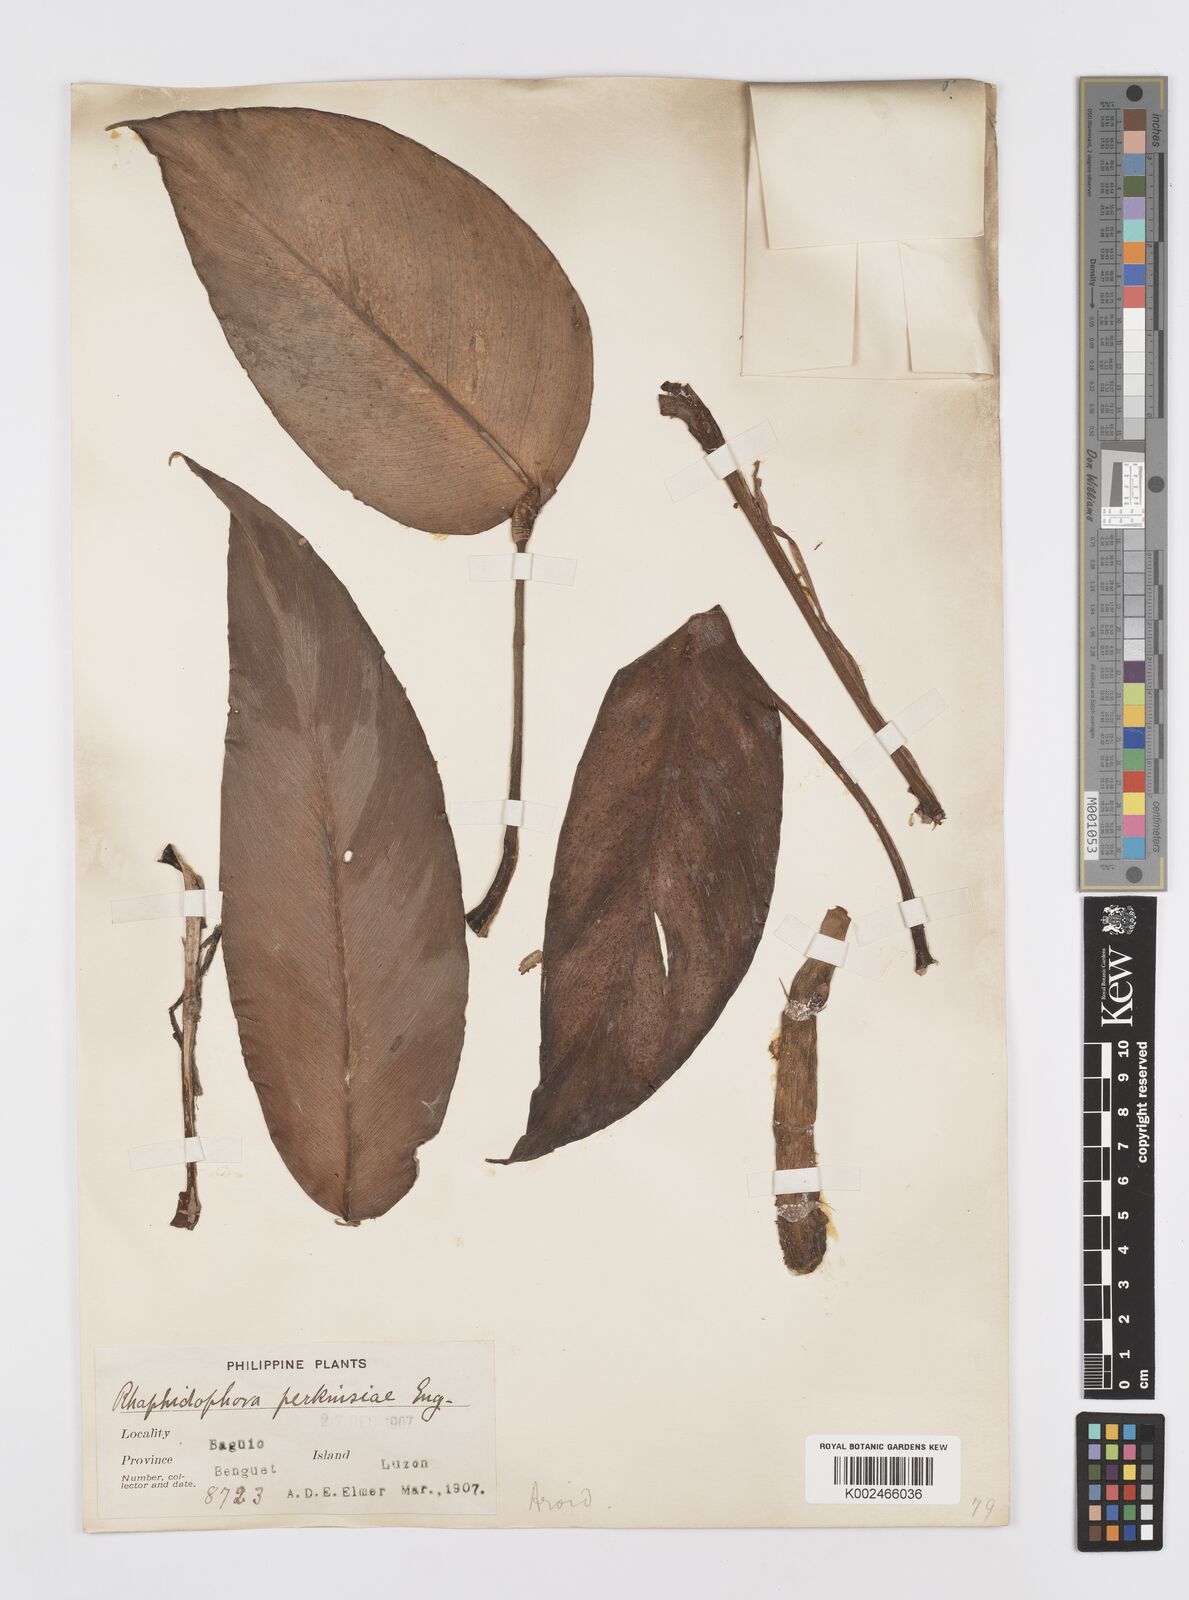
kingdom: Plantae
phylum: Tracheophyta
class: Liliopsida
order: Alismatales
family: Araceae
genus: Rhaphidophora
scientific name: Rhaphidophora perkinsiae
